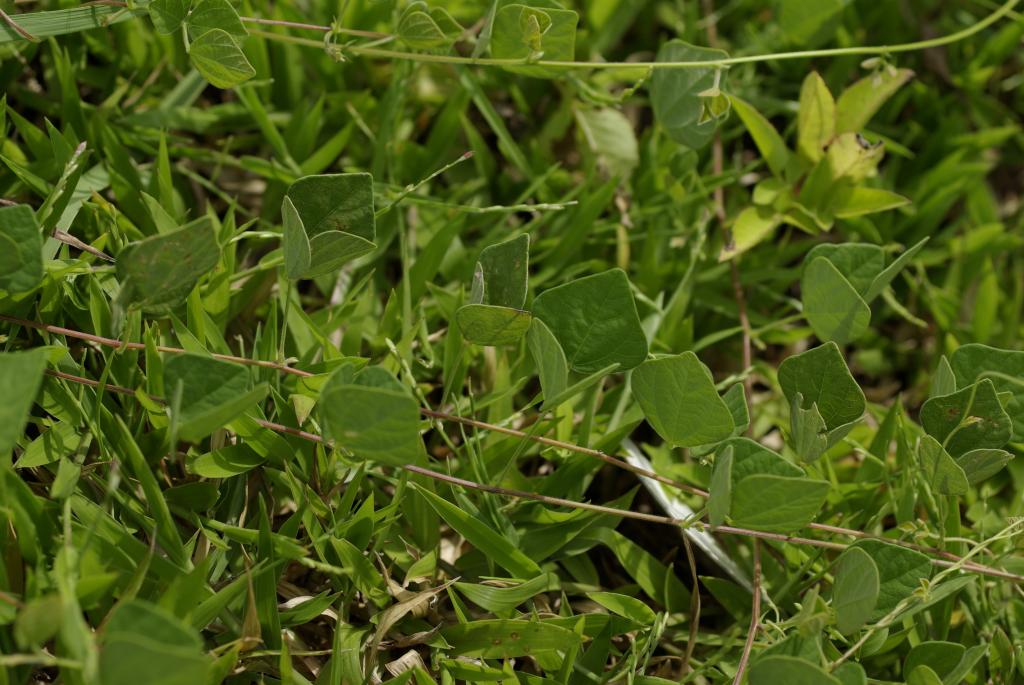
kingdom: Plantae
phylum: Tracheophyta
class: Magnoliopsida
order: Fabales
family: Fabaceae
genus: Dunbaria
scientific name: Dunbaria punctata
